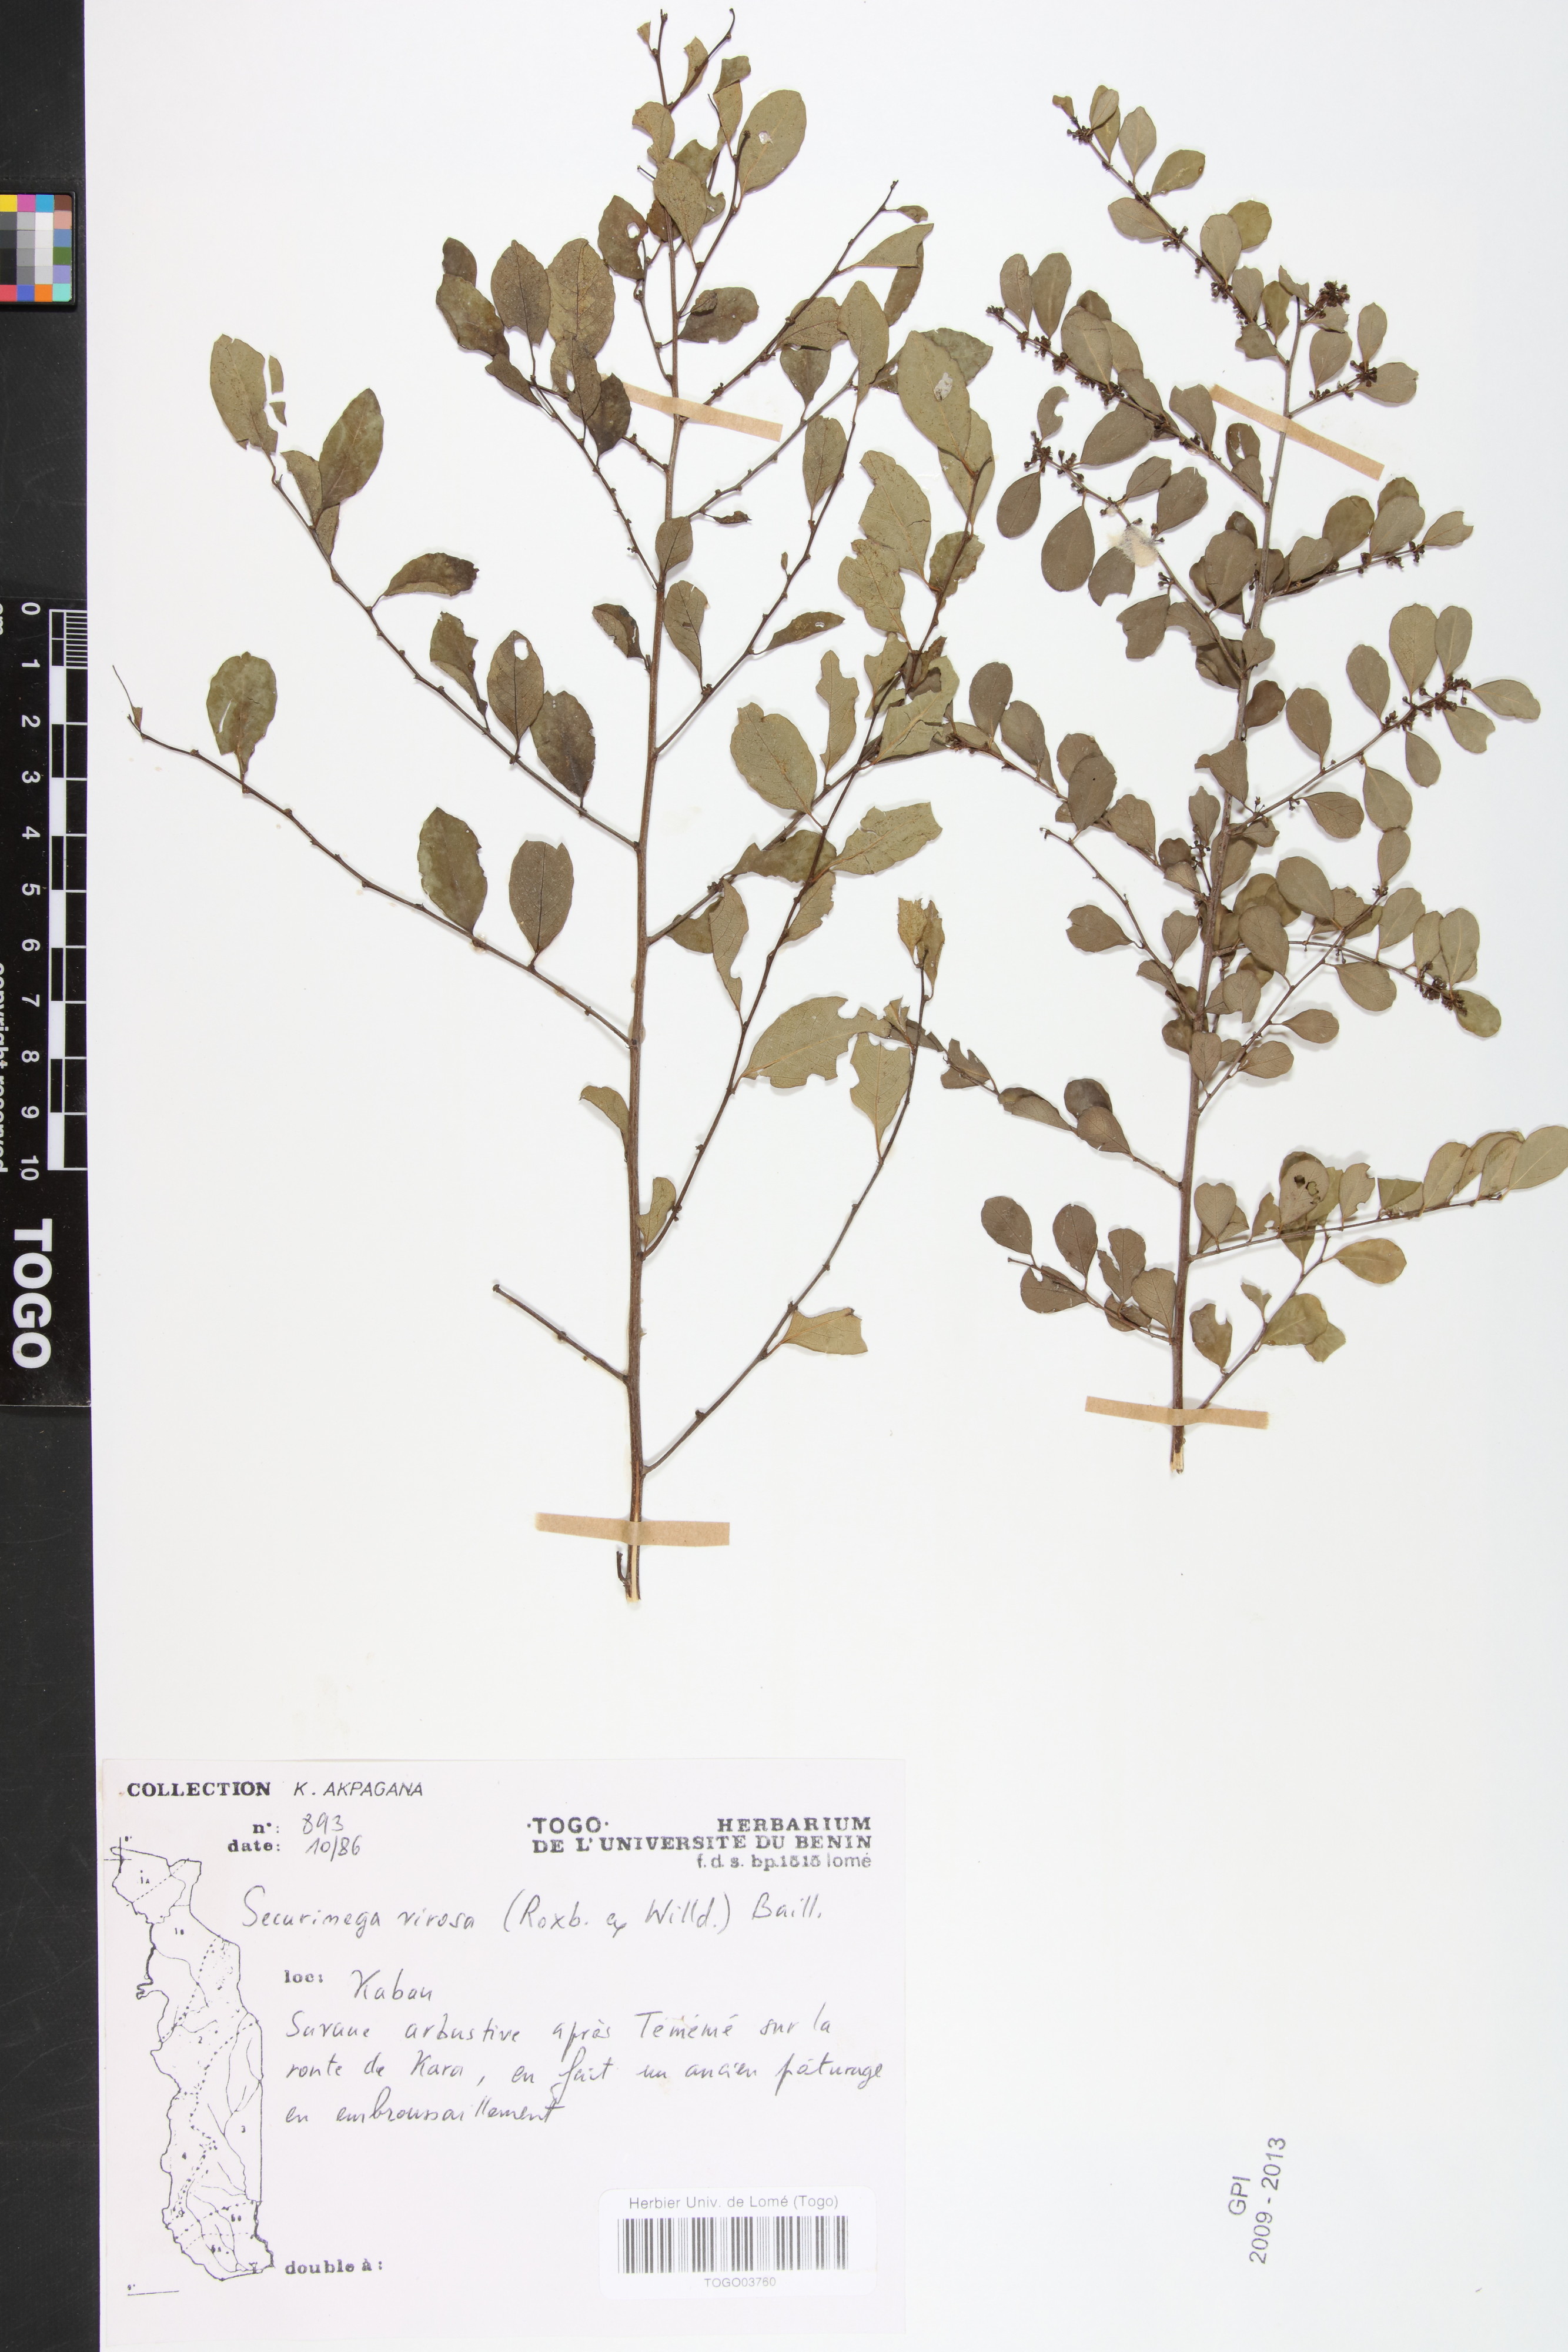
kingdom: Plantae
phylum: Tracheophyta
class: Magnoliopsida
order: Malpighiales
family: Phyllanthaceae
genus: Flueggea
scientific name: Flueggea virosa
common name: Common bushweed
